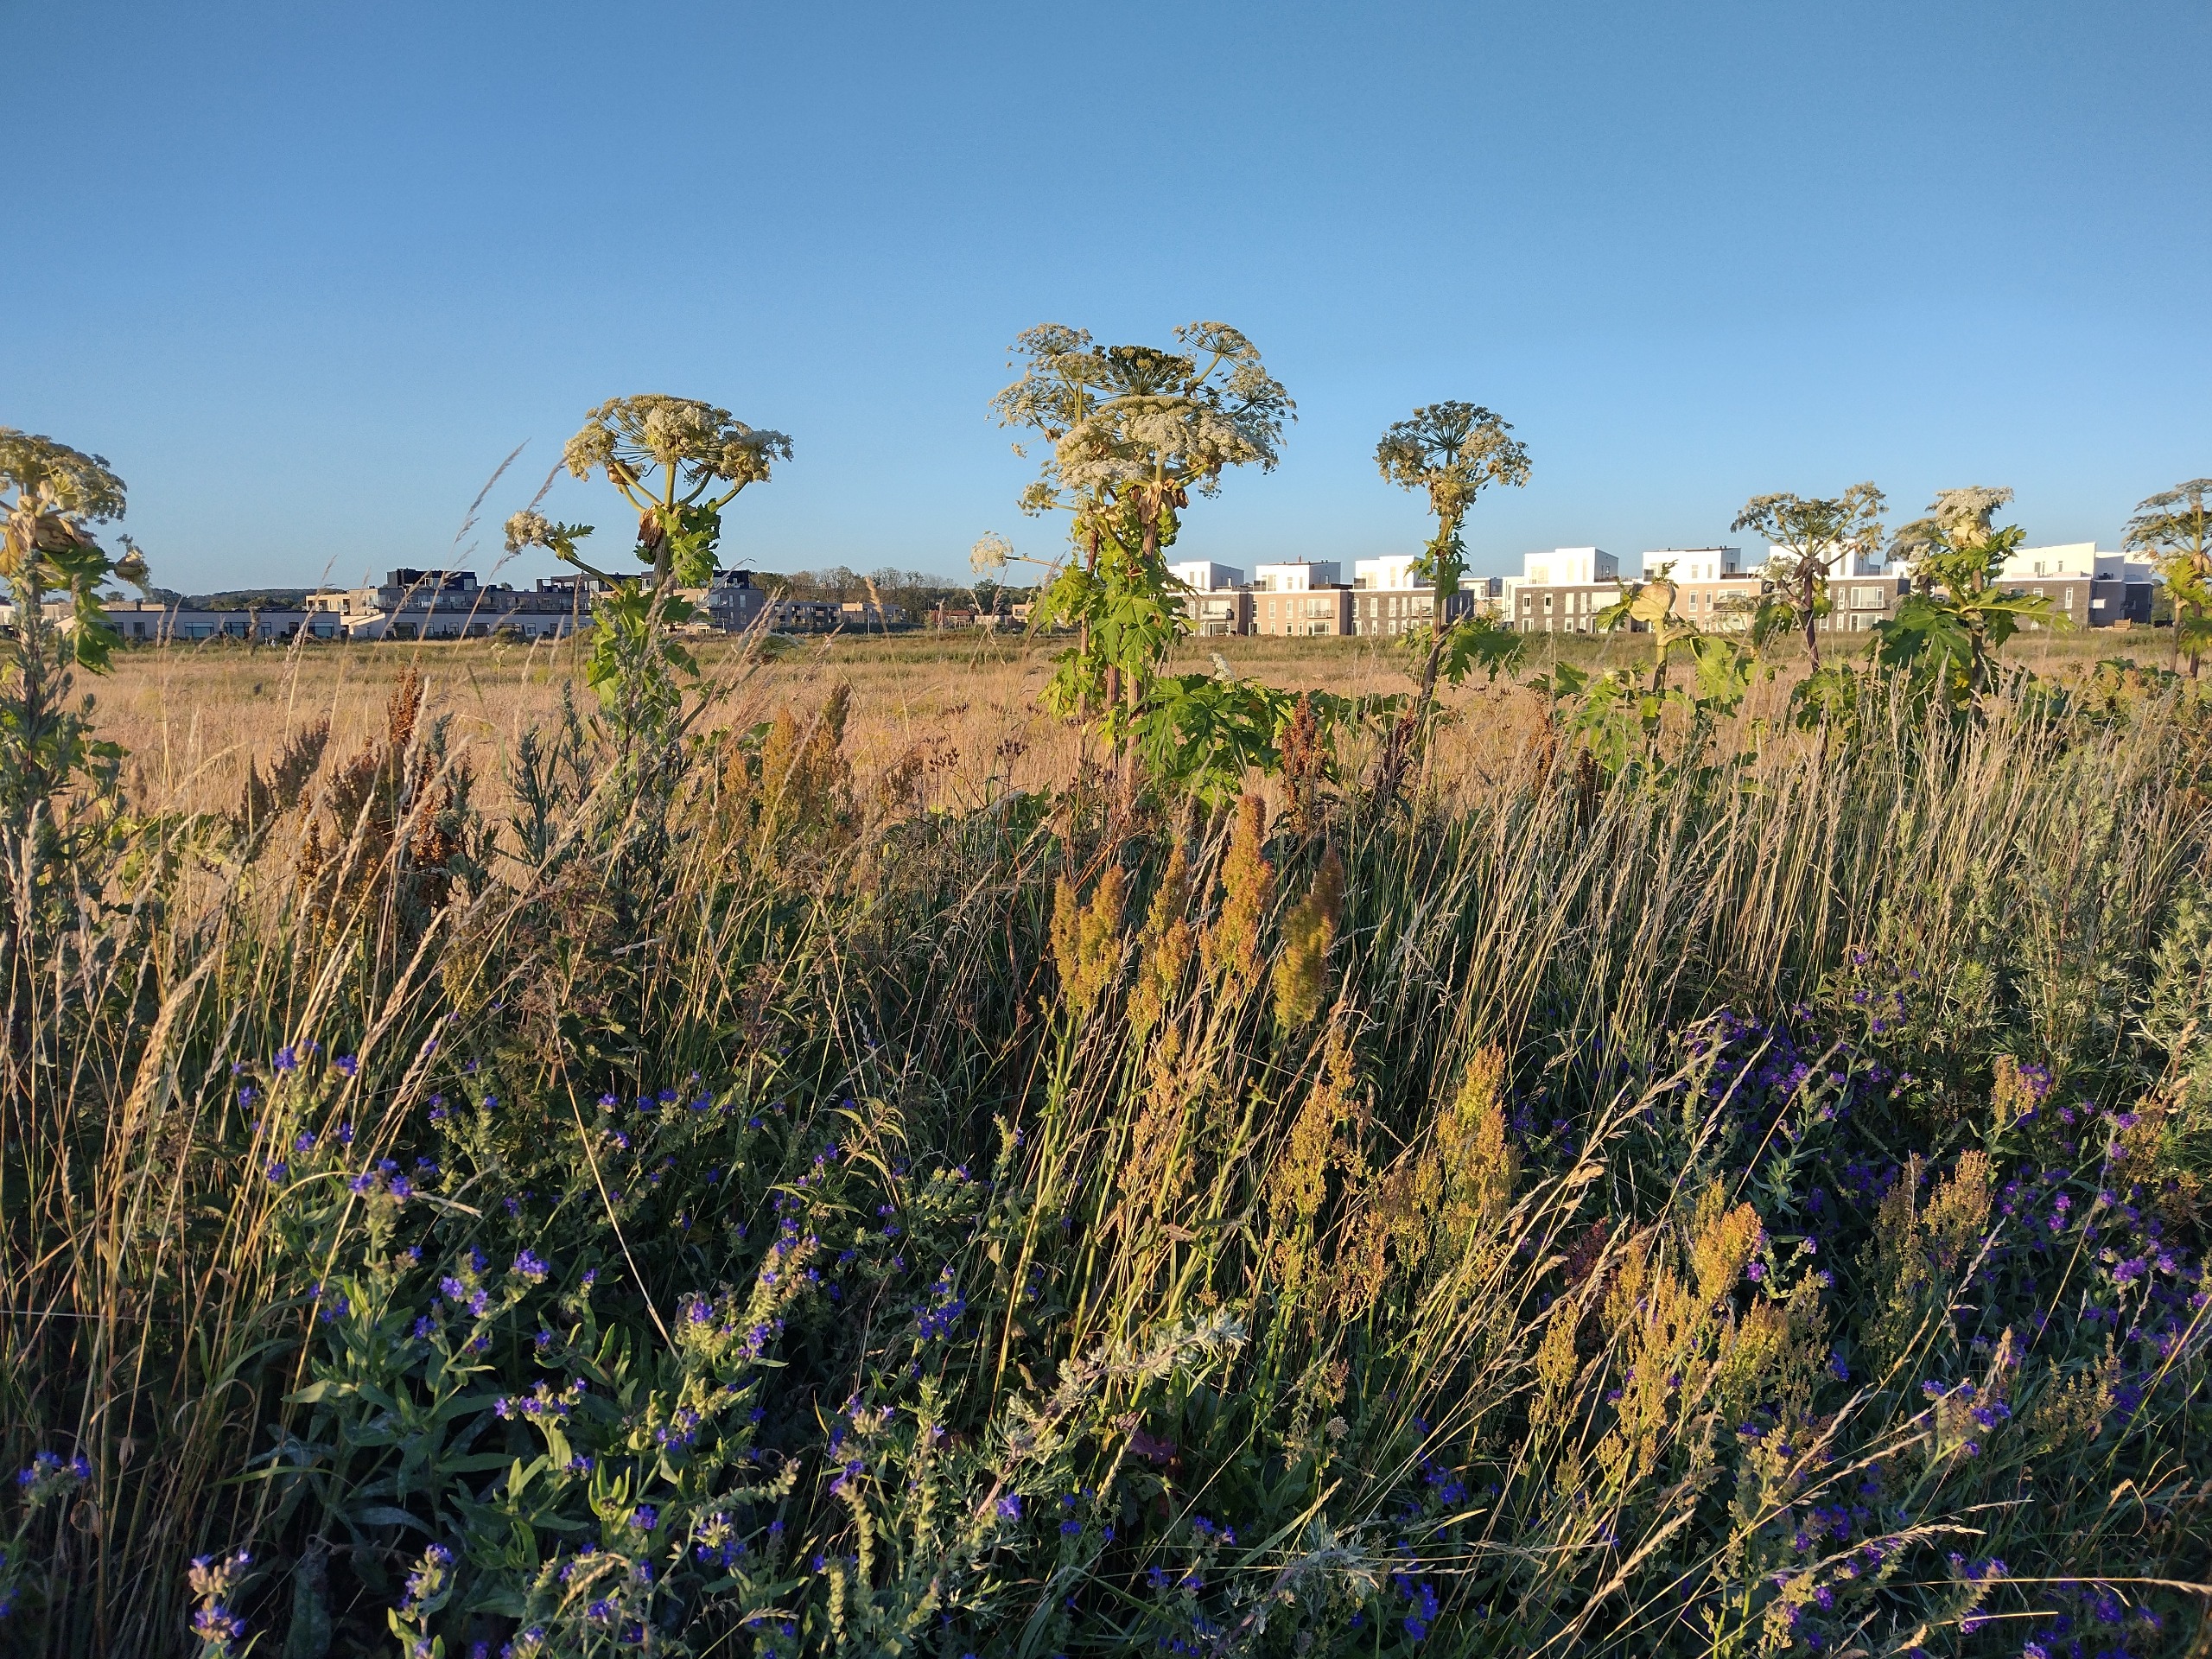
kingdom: Plantae
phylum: Tracheophyta
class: Magnoliopsida
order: Apiales
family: Apiaceae
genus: Heracleum
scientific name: Heracleum mantegazzianum
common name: Kæmpe-bjørneklo
